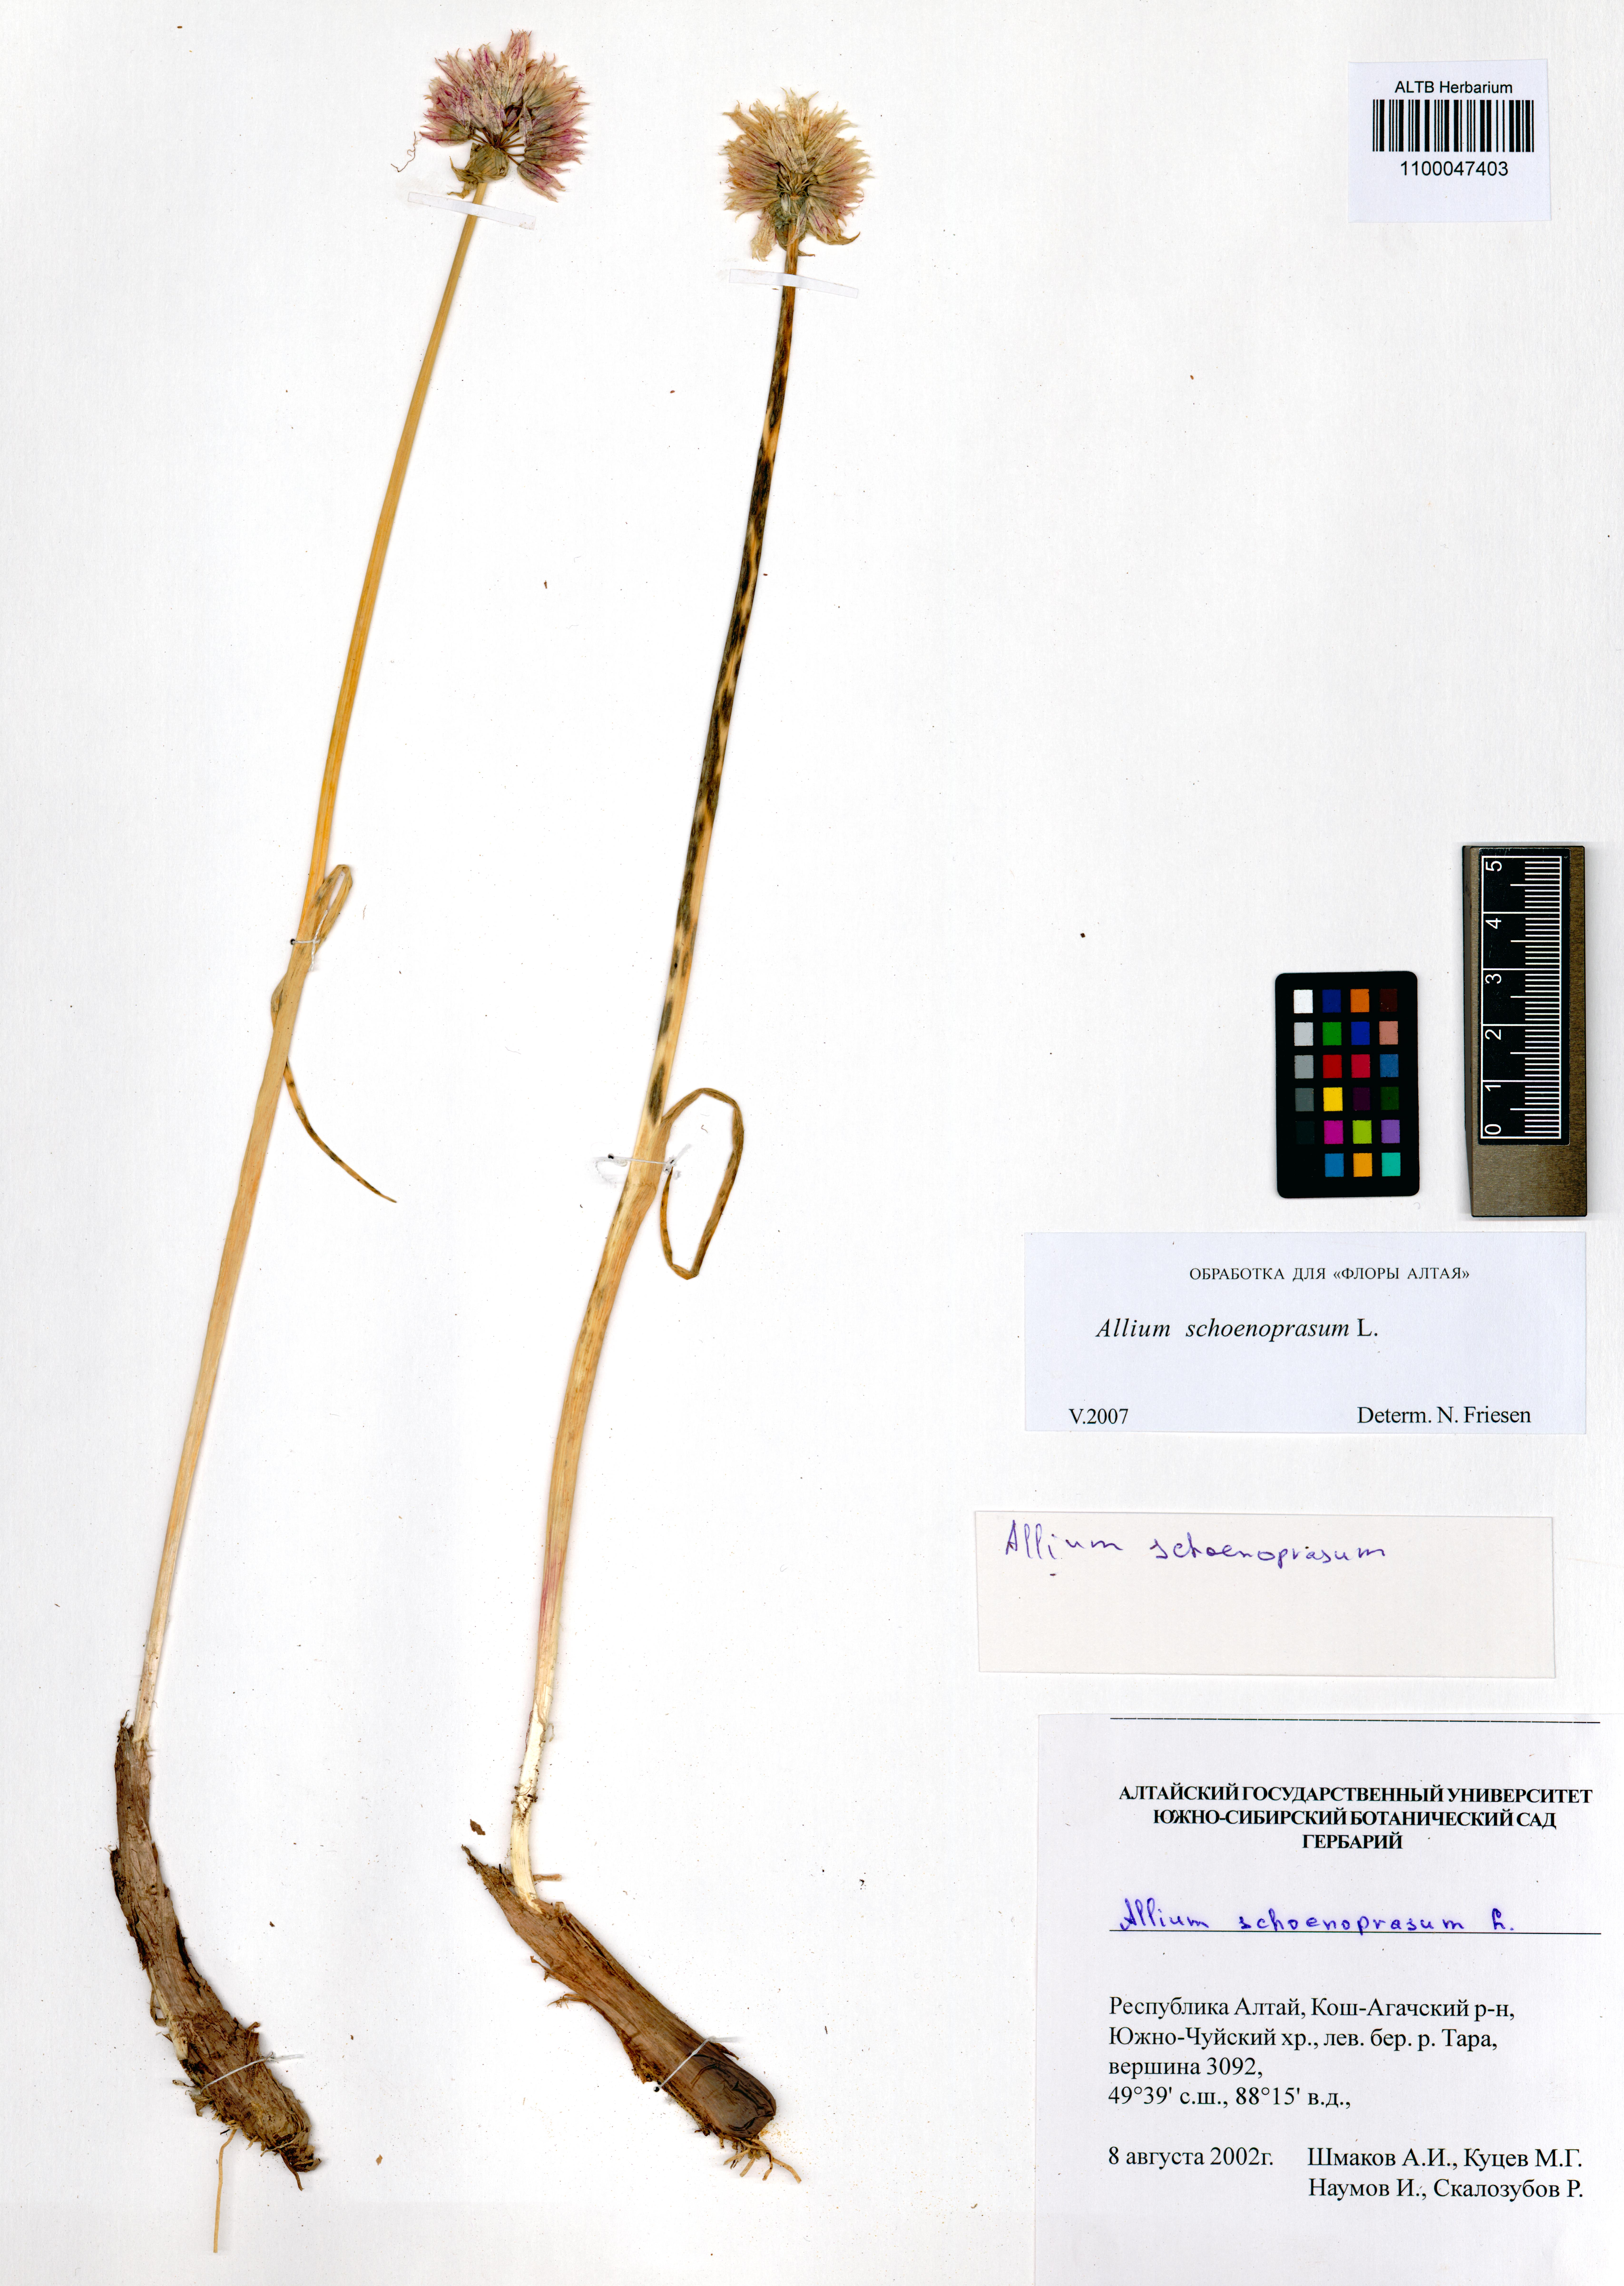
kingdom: Plantae
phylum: Tracheophyta
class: Liliopsida
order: Asparagales
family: Amaryllidaceae
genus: Allium
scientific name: Allium schoenoprasum
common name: Chives
